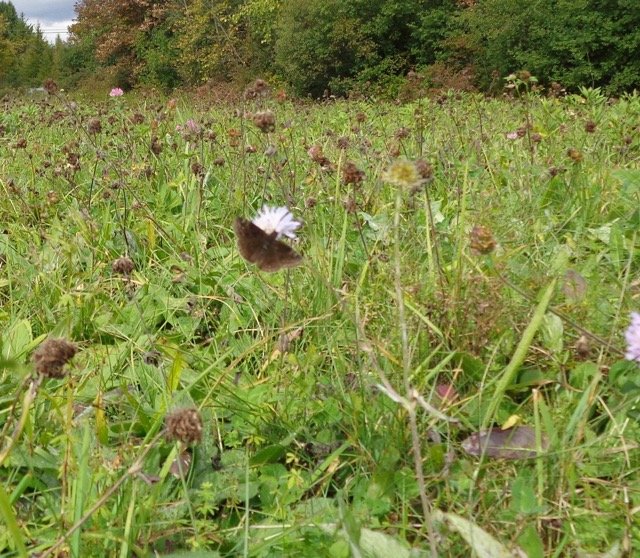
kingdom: Animalia
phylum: Arthropoda
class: Insecta
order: Lepidoptera
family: Hesperiidae
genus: Gesta
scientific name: Gesta
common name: Wild Indigo Duskywing
